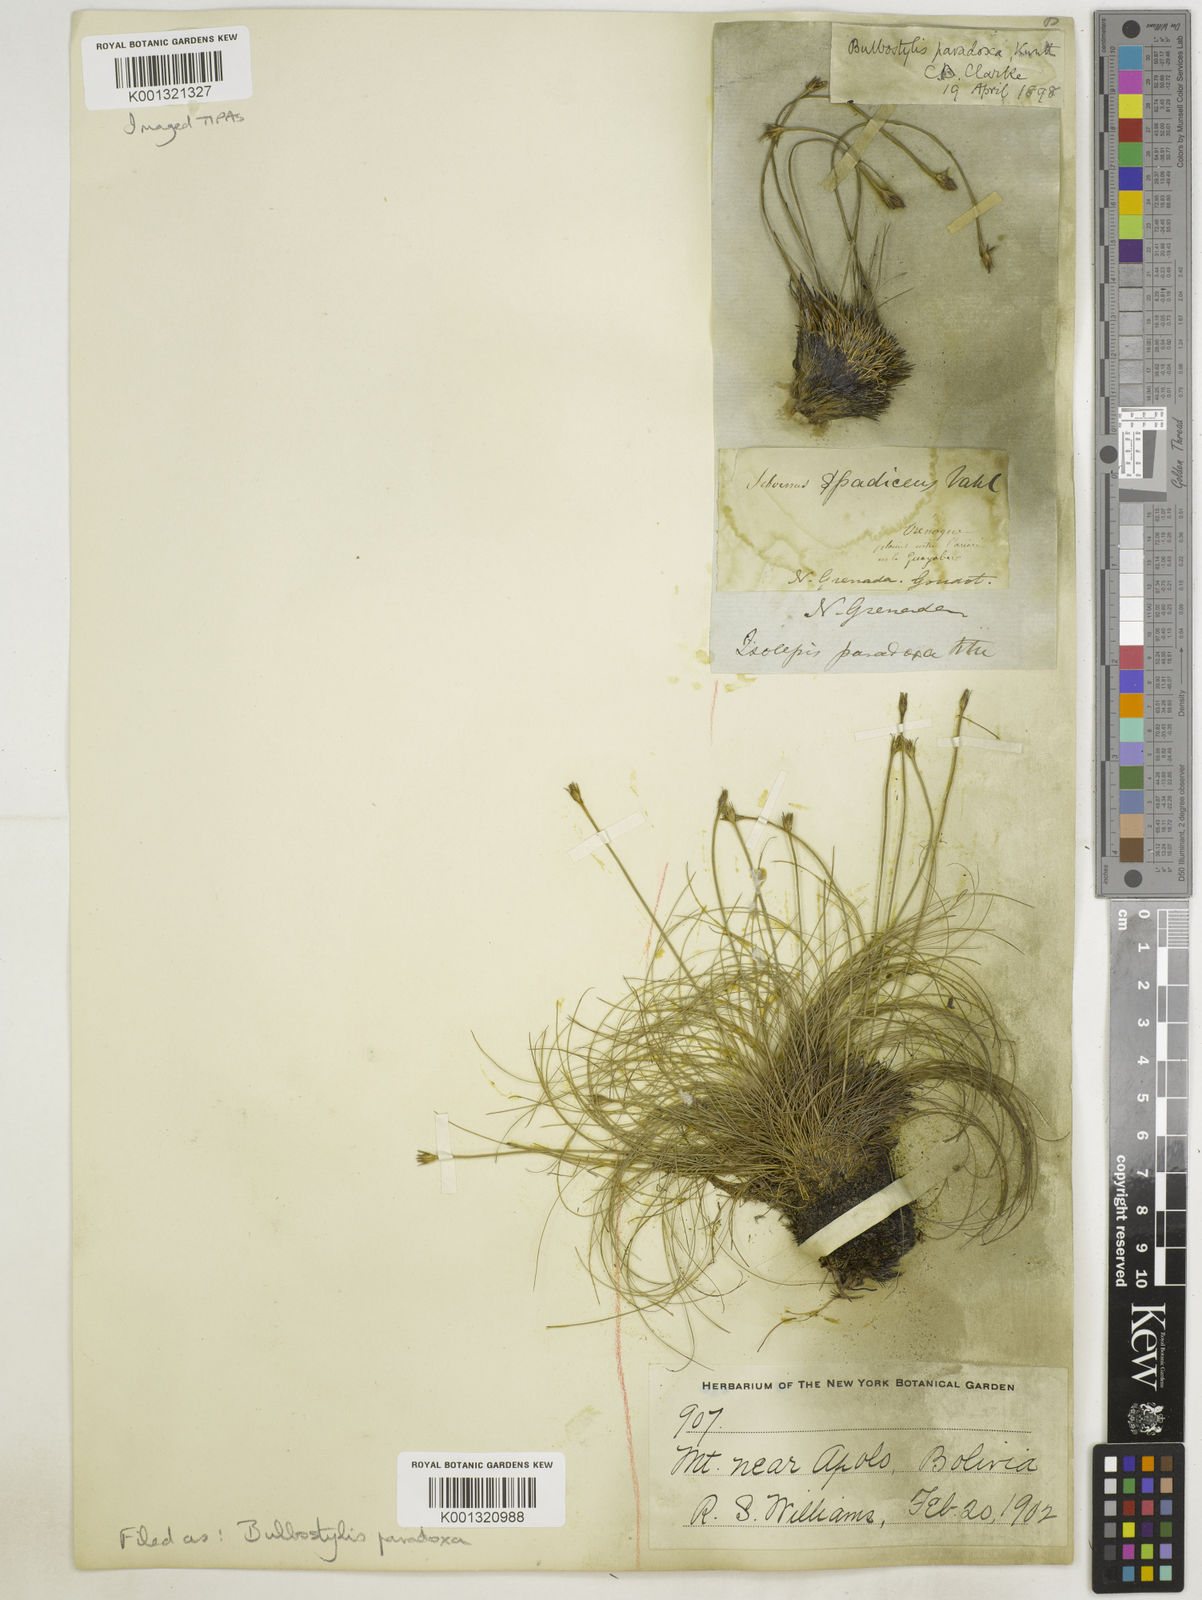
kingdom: Plantae
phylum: Tracheophyta
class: Liliopsida
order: Poales
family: Cyperaceae
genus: Bulbostylis
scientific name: Bulbostylis
